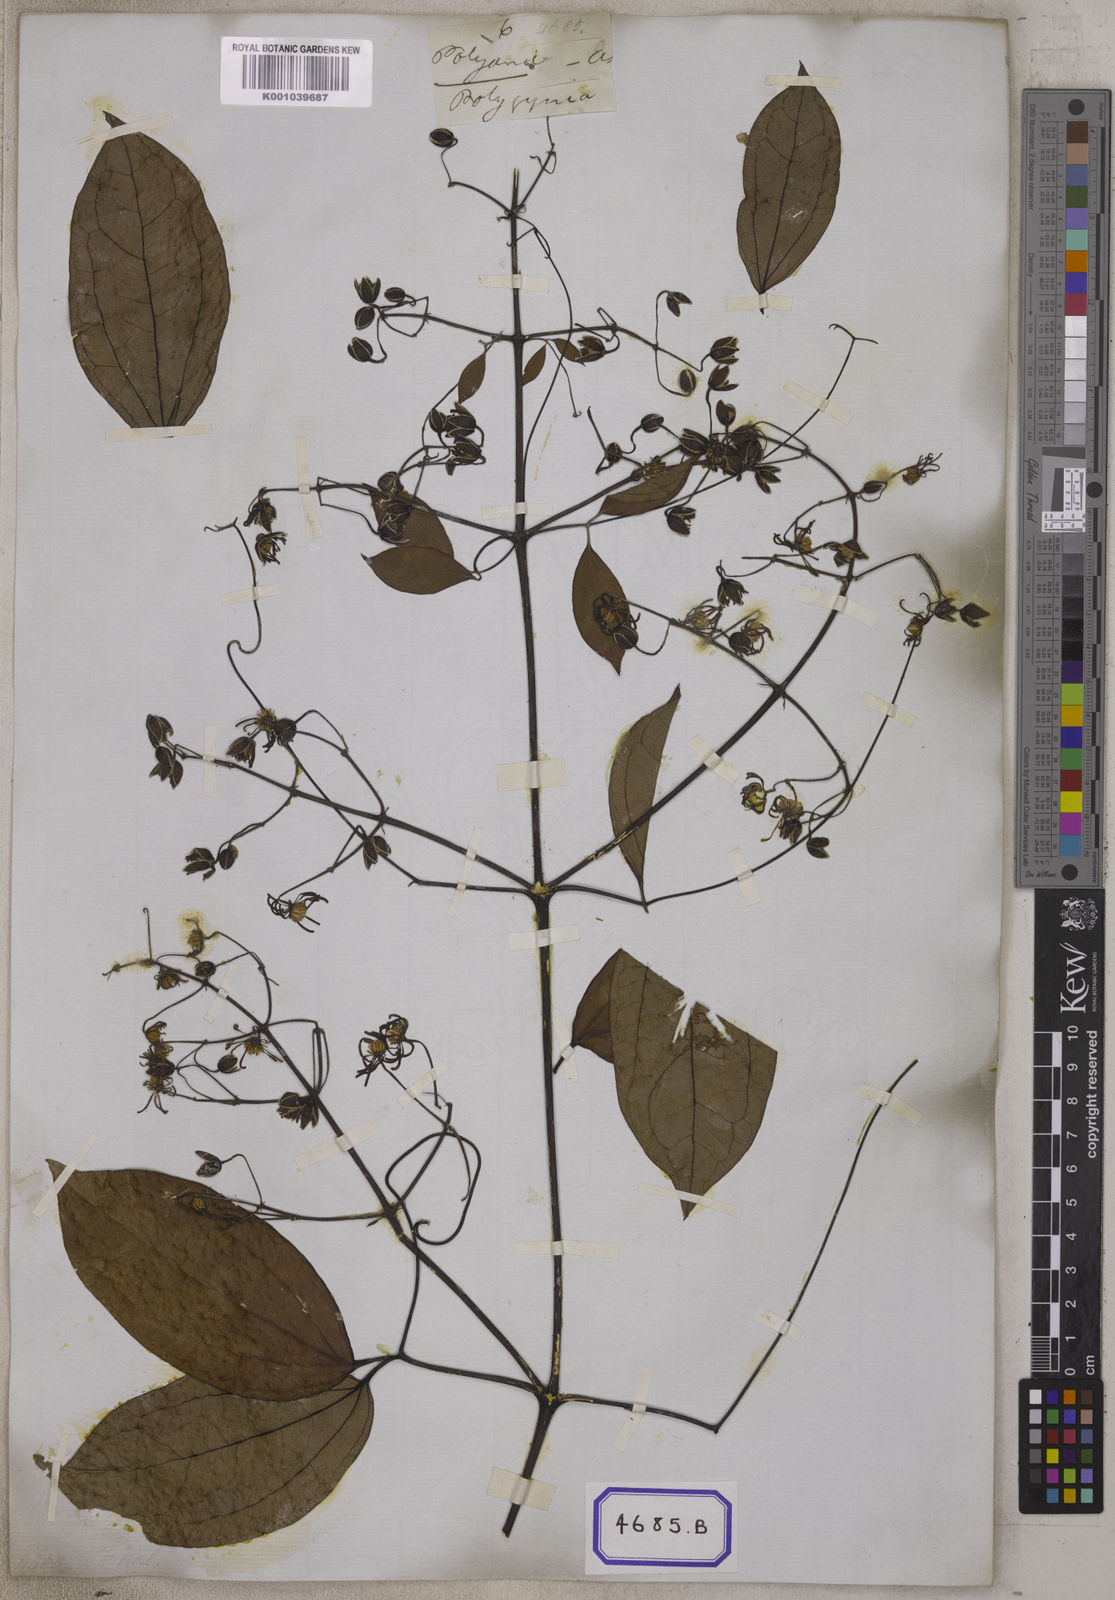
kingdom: Plantae
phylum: Tracheophyta
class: Magnoliopsida
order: Ranunculales
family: Ranunculaceae
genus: Clematis
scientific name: Clematis
